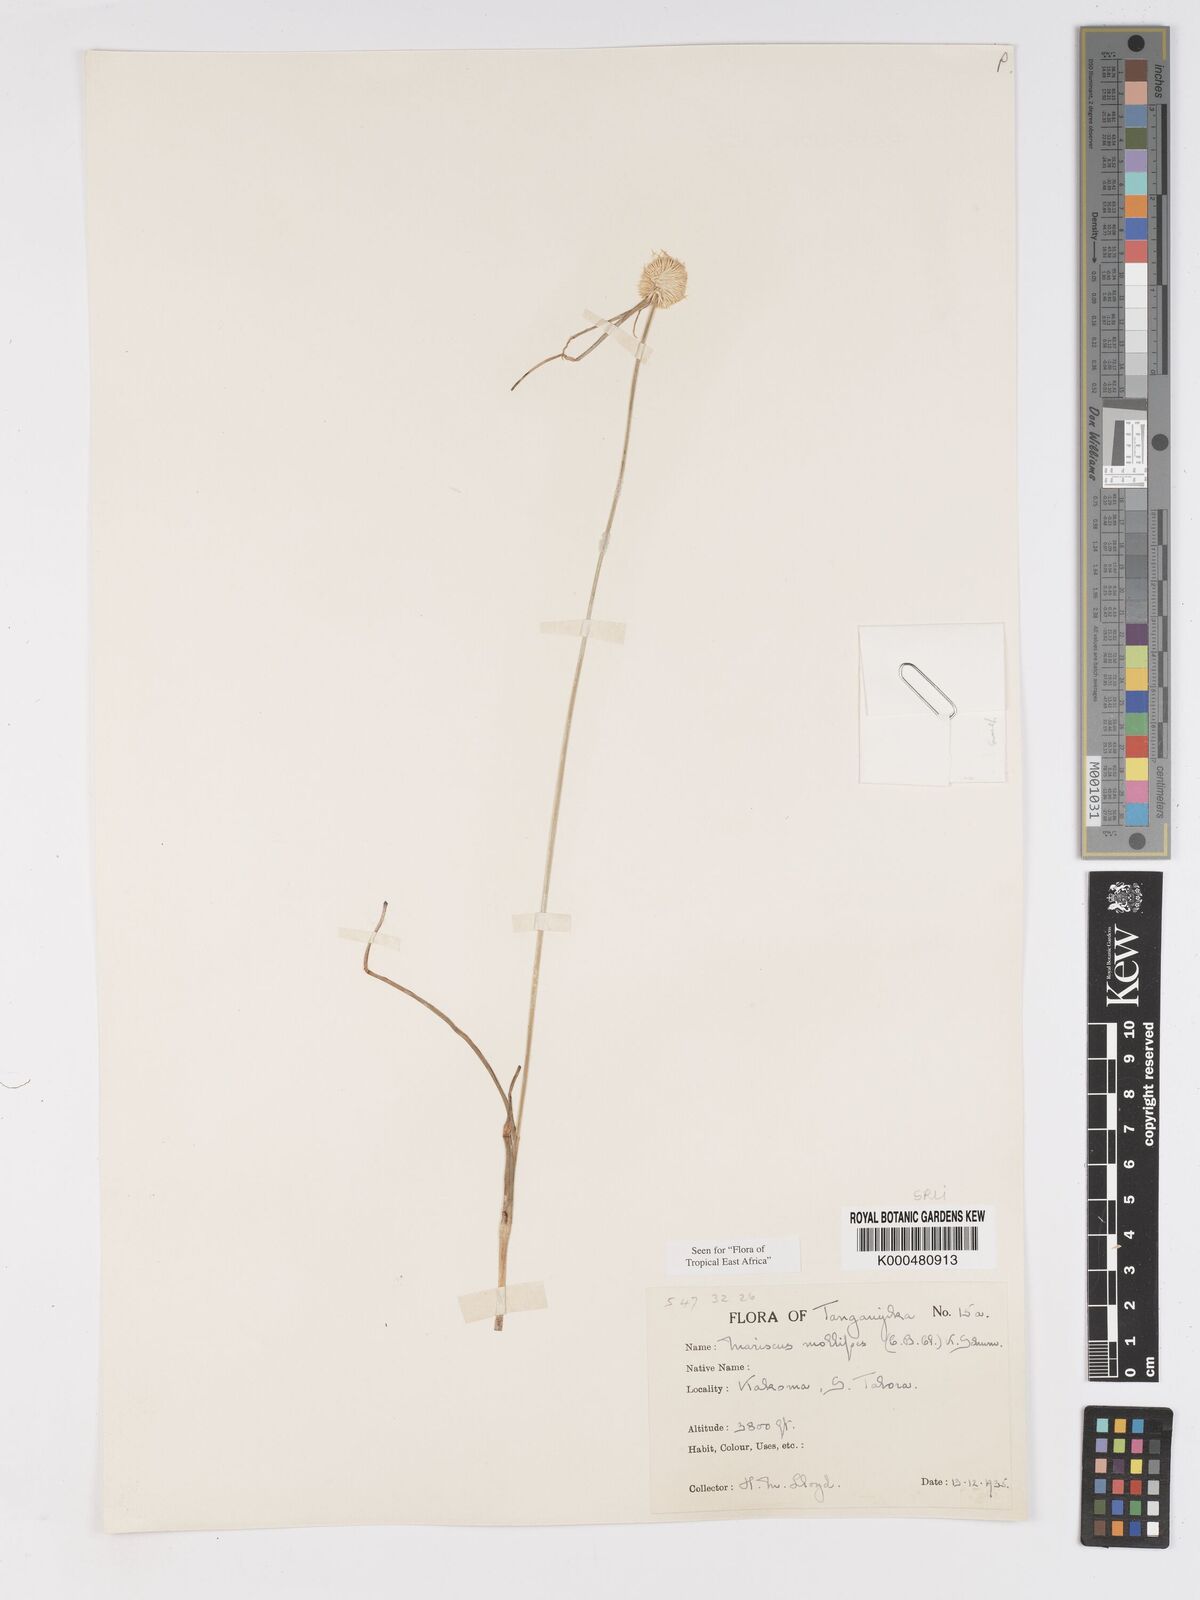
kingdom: Plantae
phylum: Tracheophyta
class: Liliopsida
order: Poales
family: Cyperaceae
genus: Cyperus
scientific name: Cyperus mollipes
